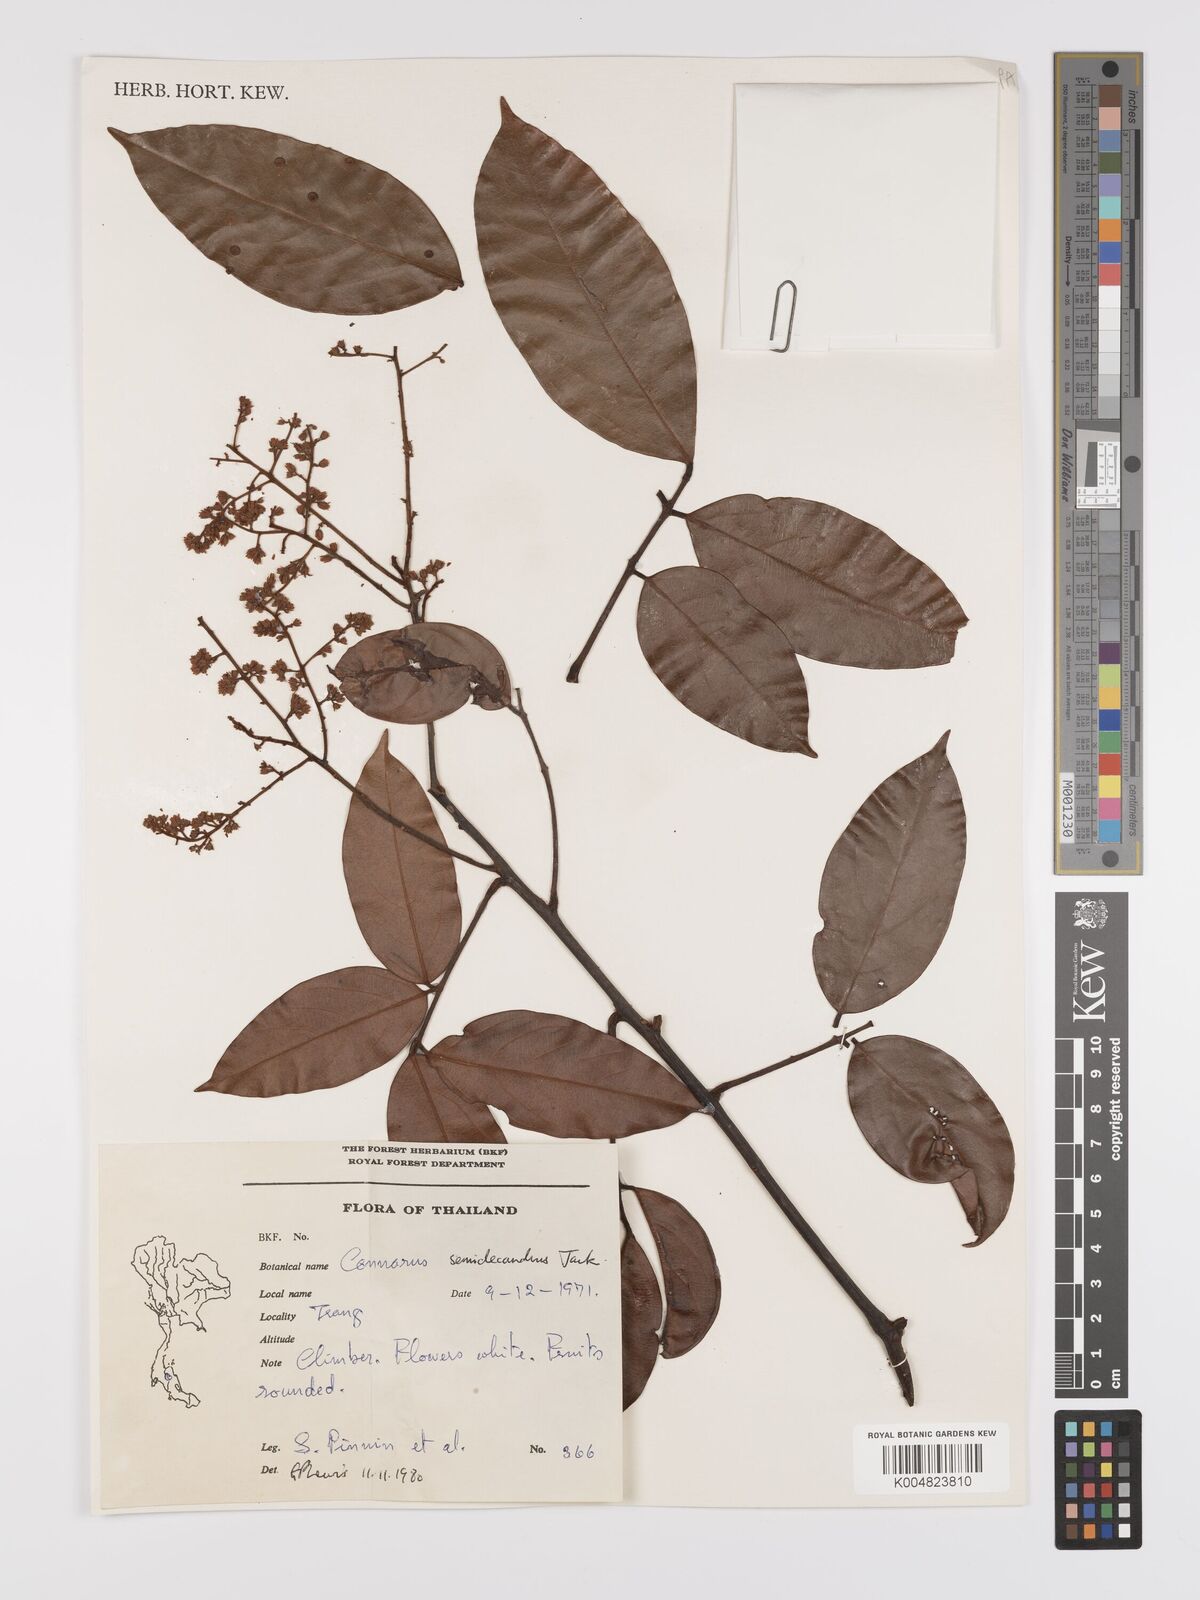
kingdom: Plantae
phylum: Tracheophyta
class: Magnoliopsida
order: Oxalidales
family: Connaraceae
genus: Connarus
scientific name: Connarus semidecandrus
